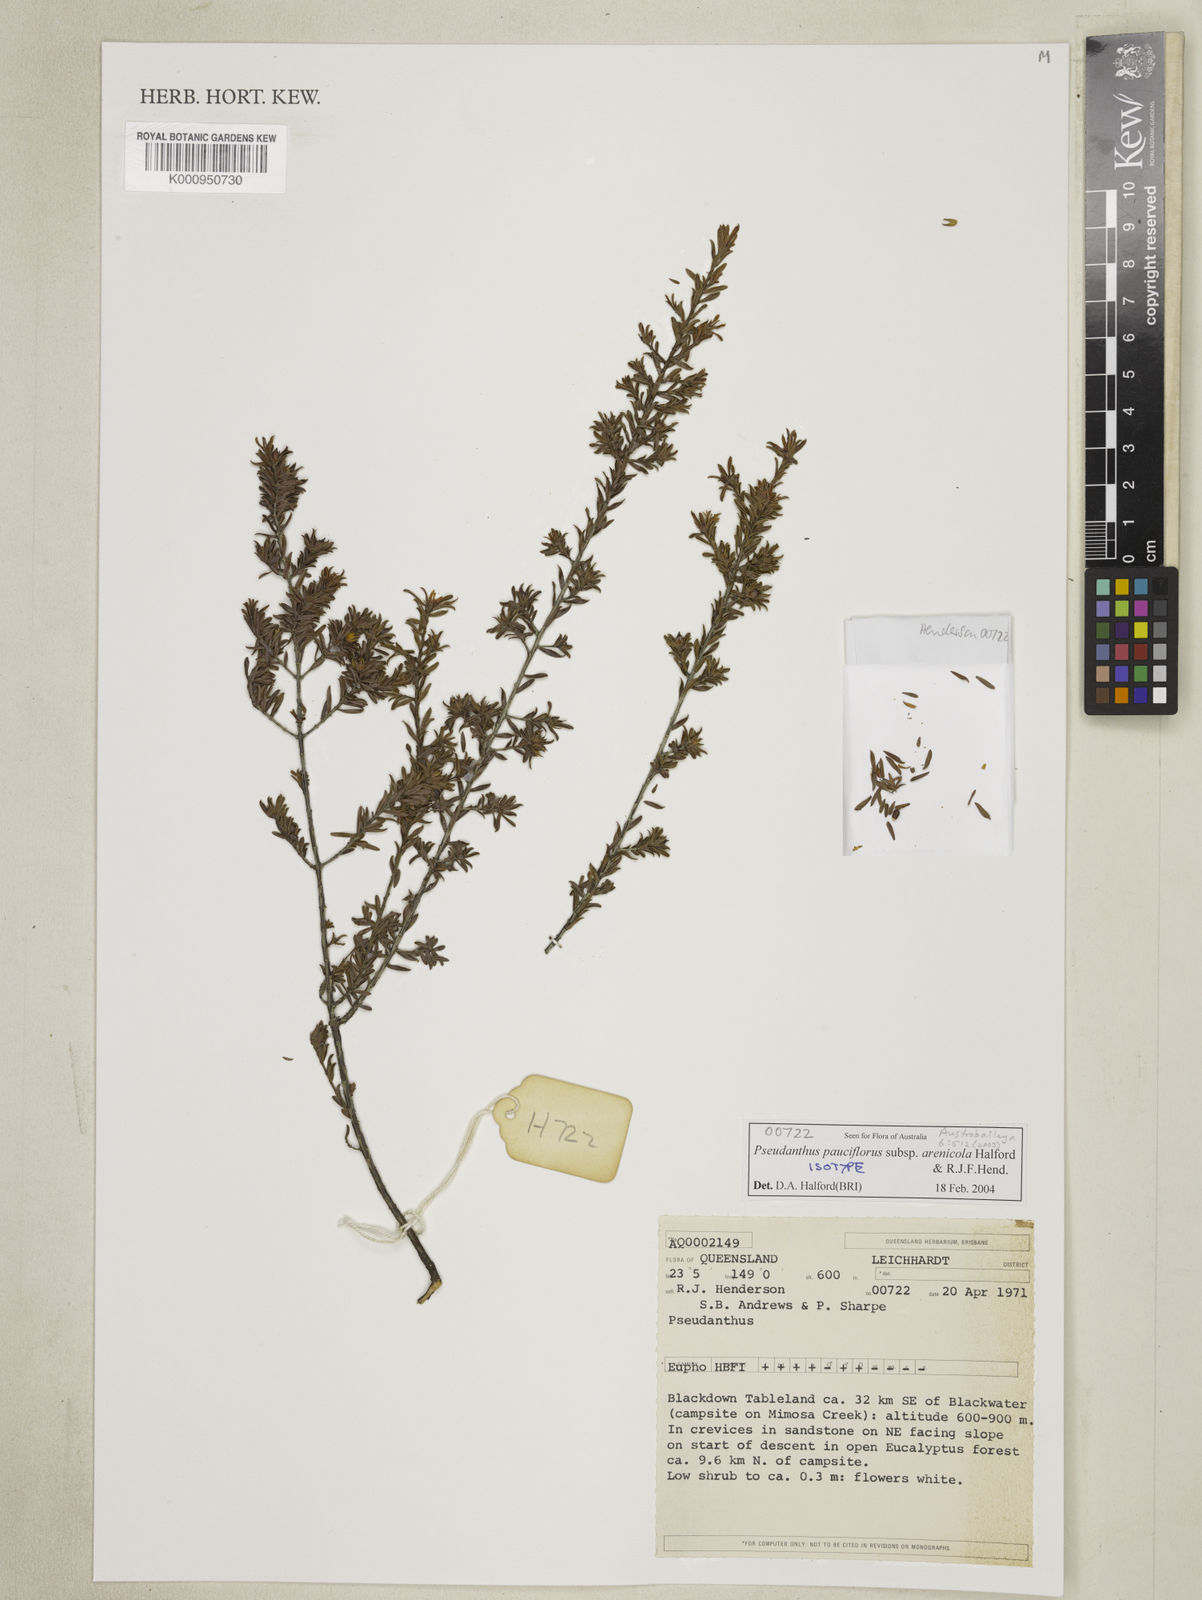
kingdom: Plantae
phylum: Tracheophyta
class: Magnoliopsida
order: Malpighiales
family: Picrodendraceae
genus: Pseudanthus
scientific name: Pseudanthus pauciflorus
